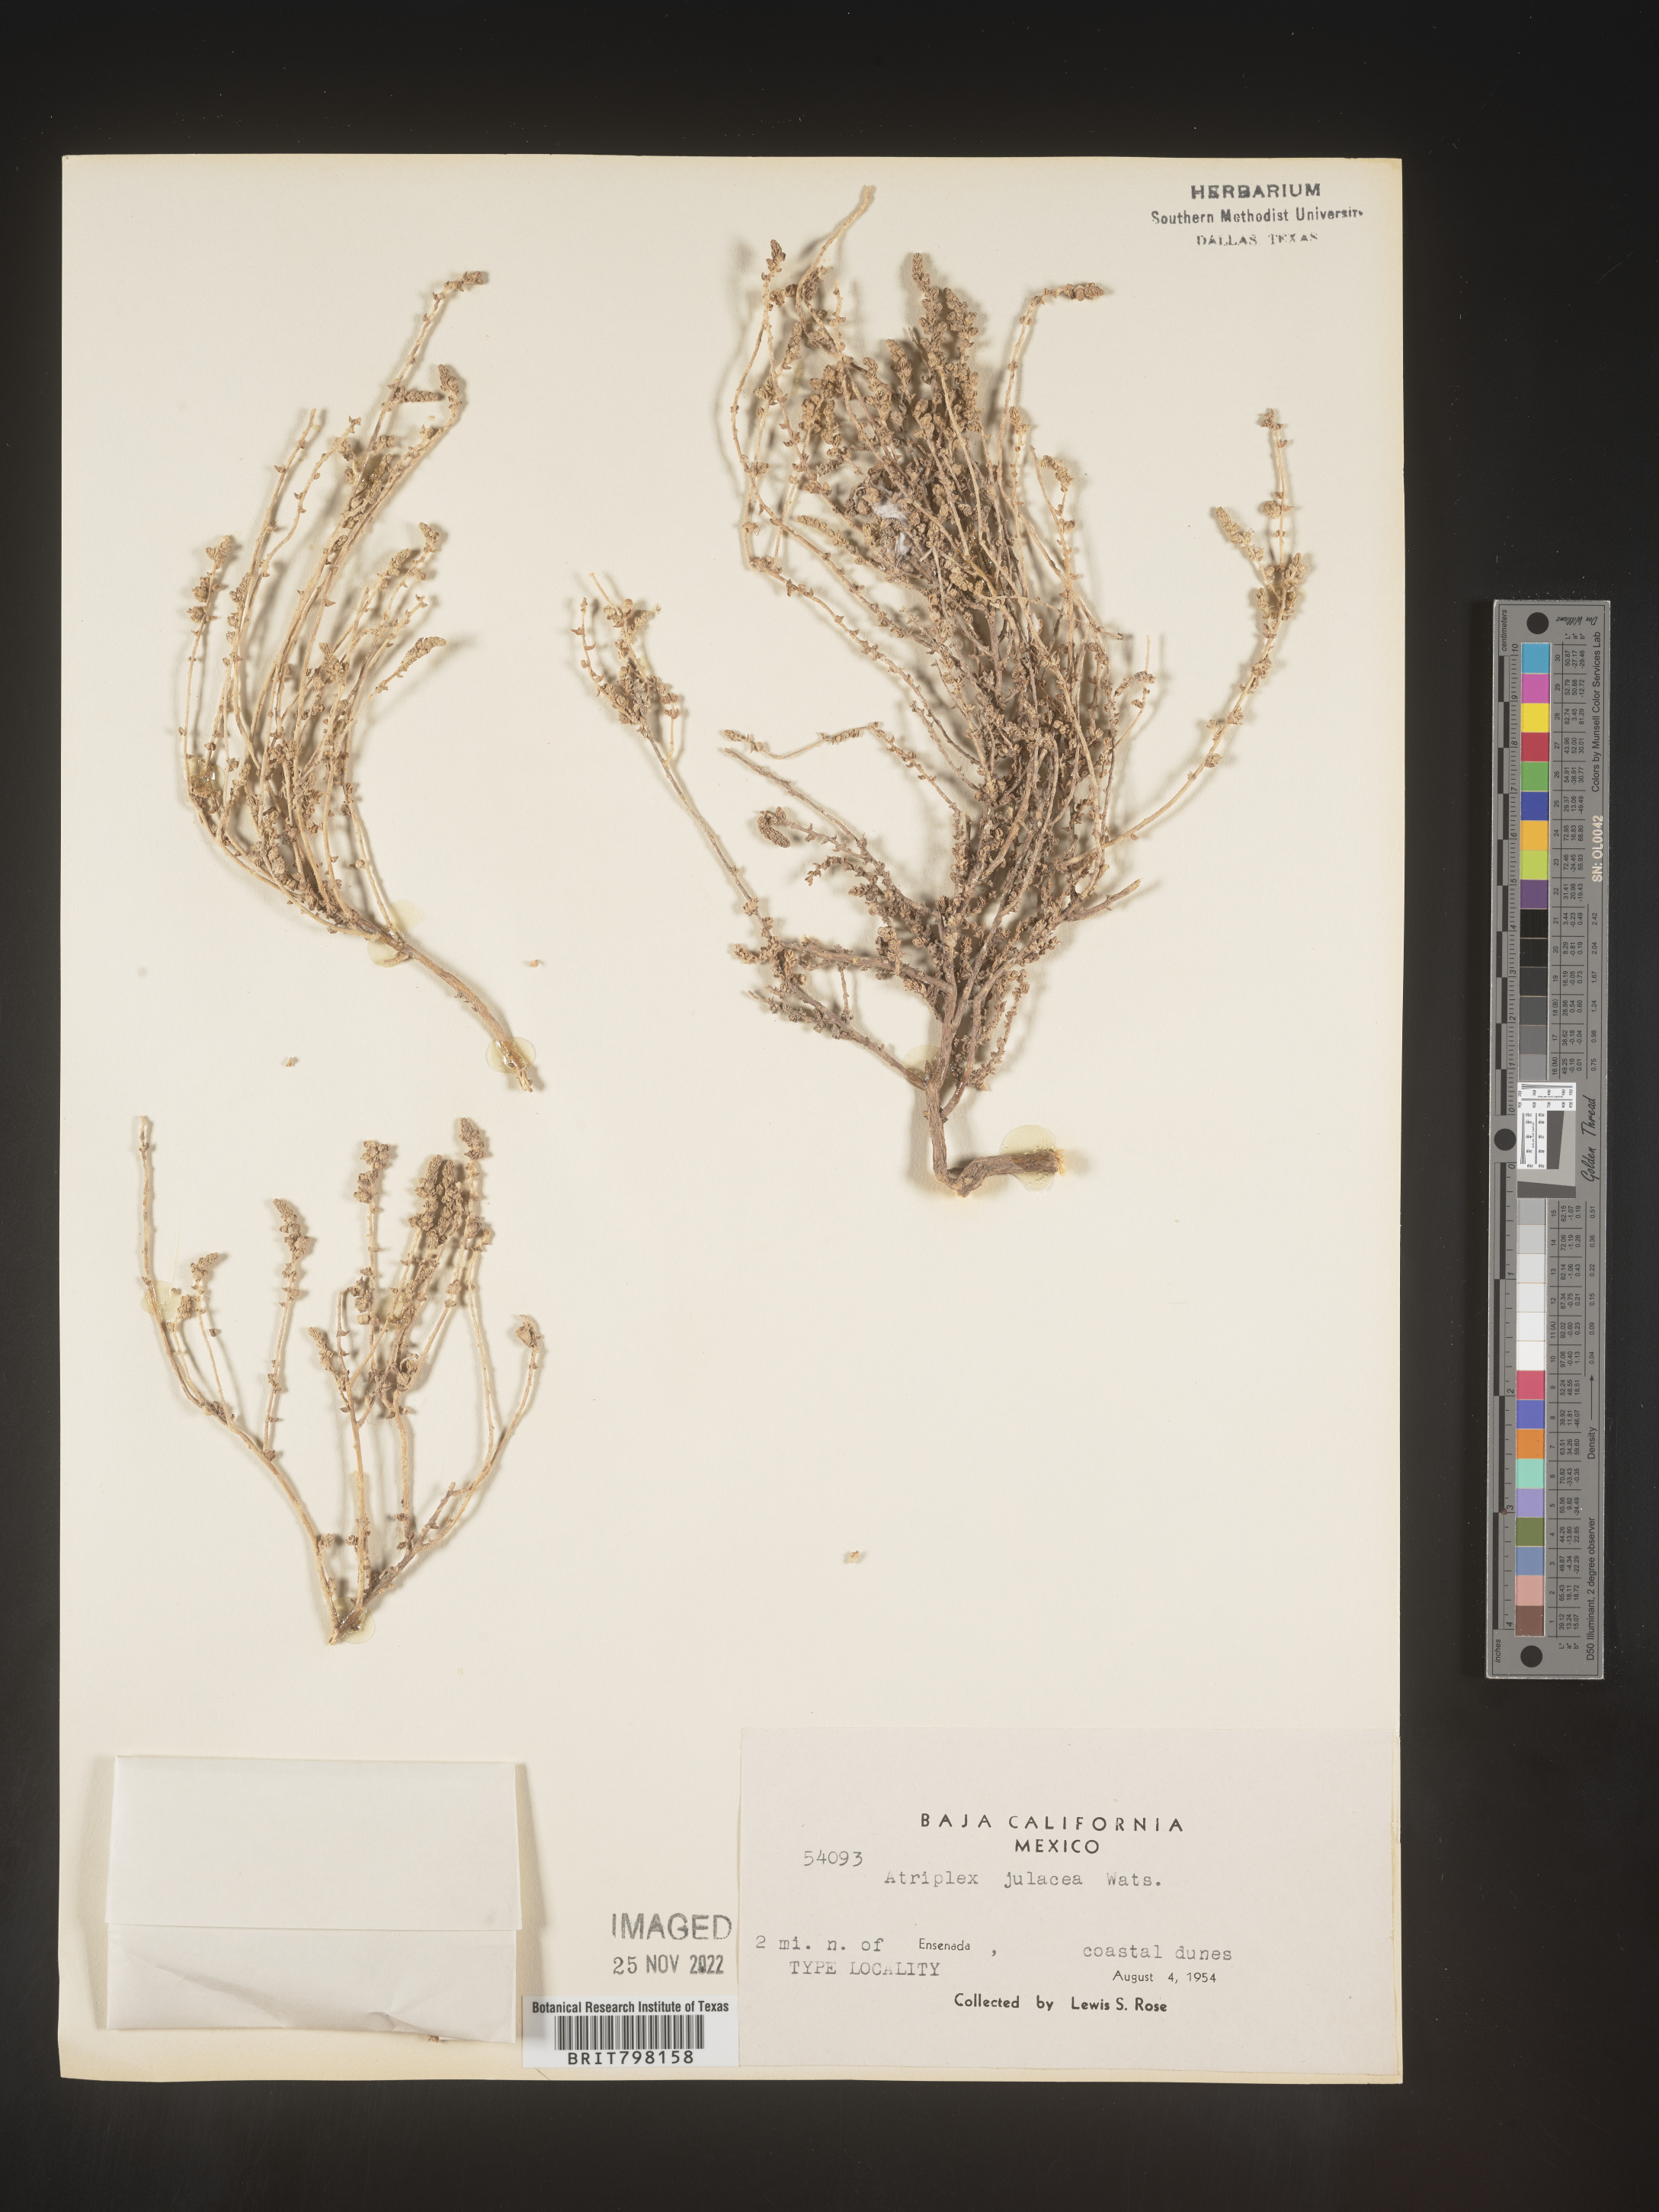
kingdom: Plantae
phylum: Tracheophyta
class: Magnoliopsida
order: Caryophyllales
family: Amaranthaceae
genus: Atriplex
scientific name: Atriplex
